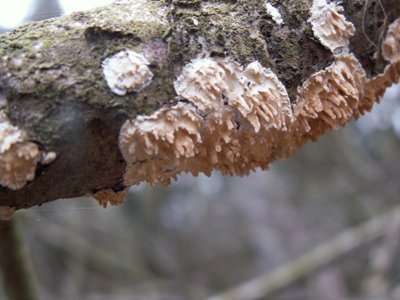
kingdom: Fungi
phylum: Basidiomycota
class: Agaricomycetes
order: Hymenochaetales
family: Schizoporaceae
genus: Xylodon
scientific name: Xylodon radula
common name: grovtandet kalkskind
